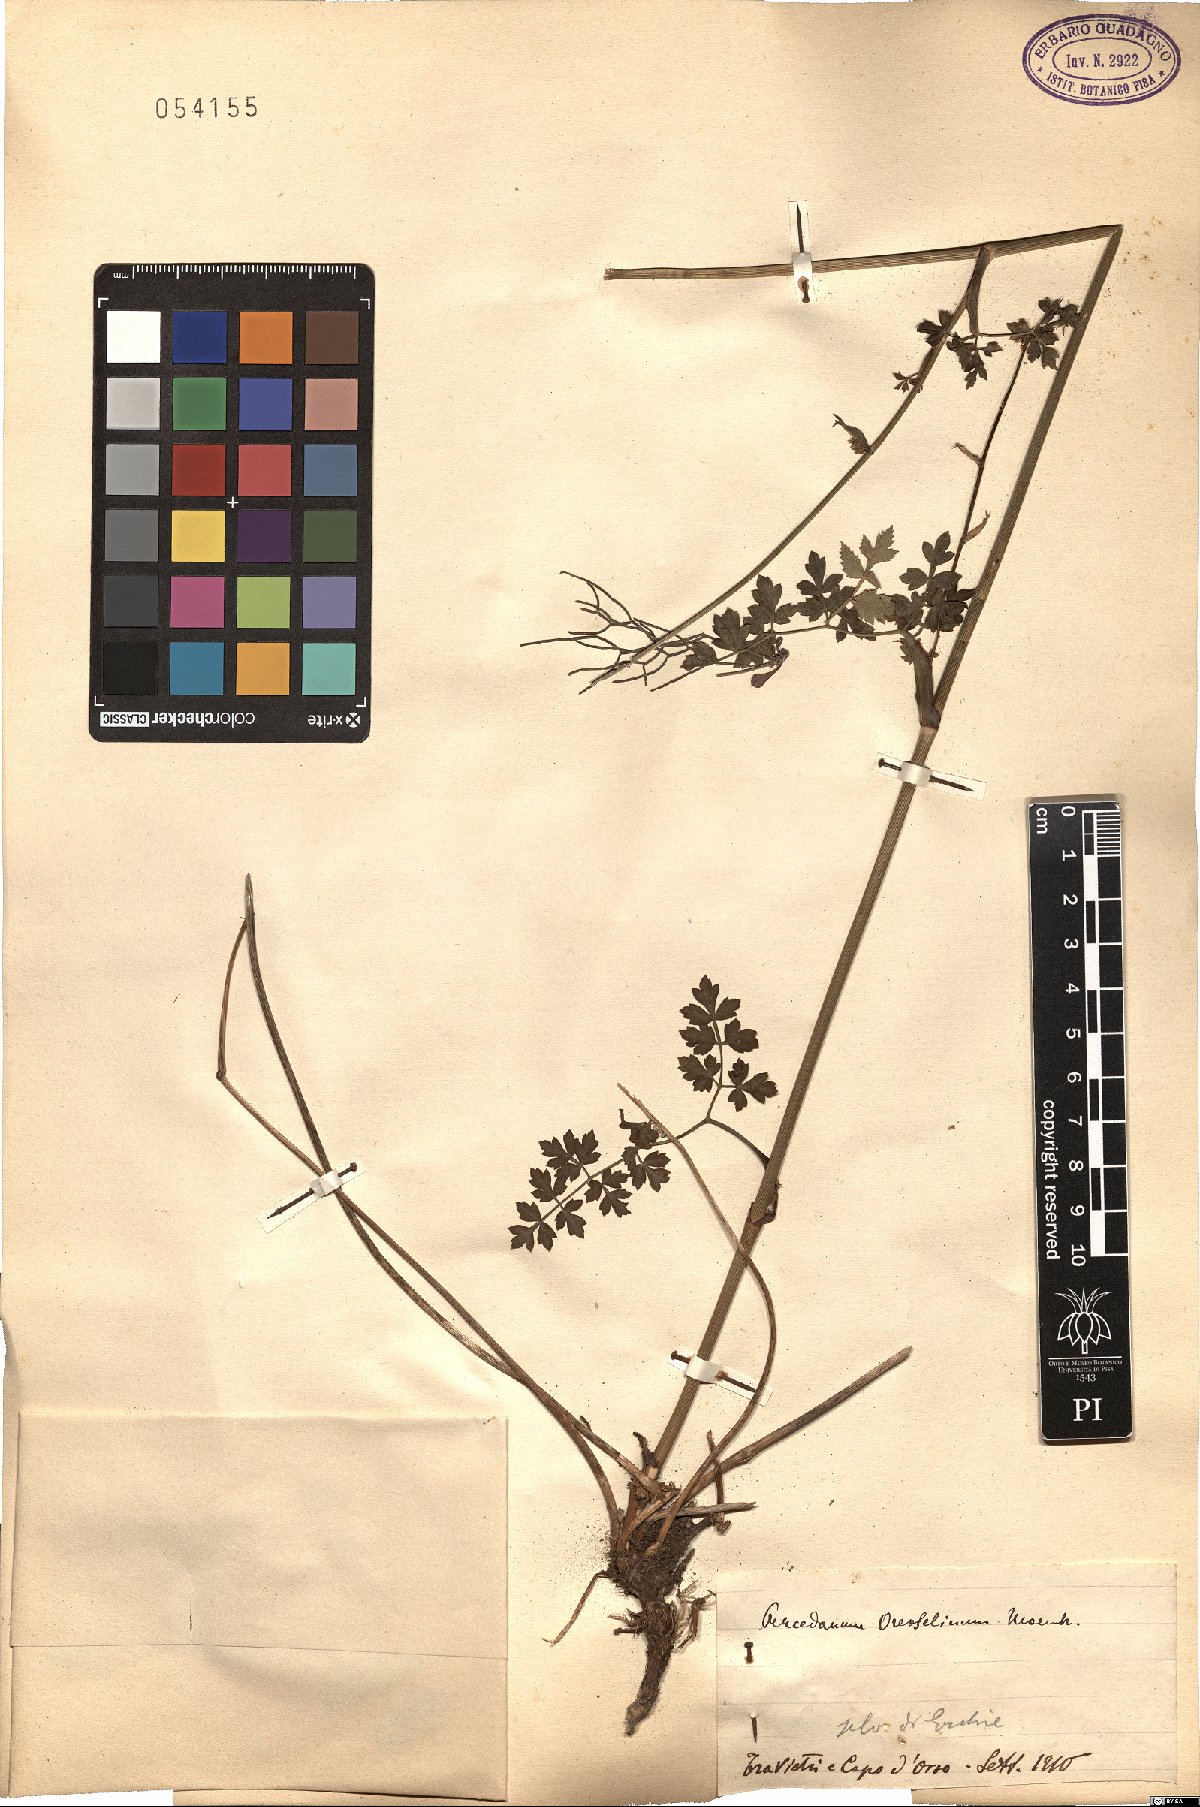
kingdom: Plantae
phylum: Tracheophyta
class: Magnoliopsida
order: Apiales
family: Apiaceae
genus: Oreoselinum
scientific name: Oreoselinum nigrum
